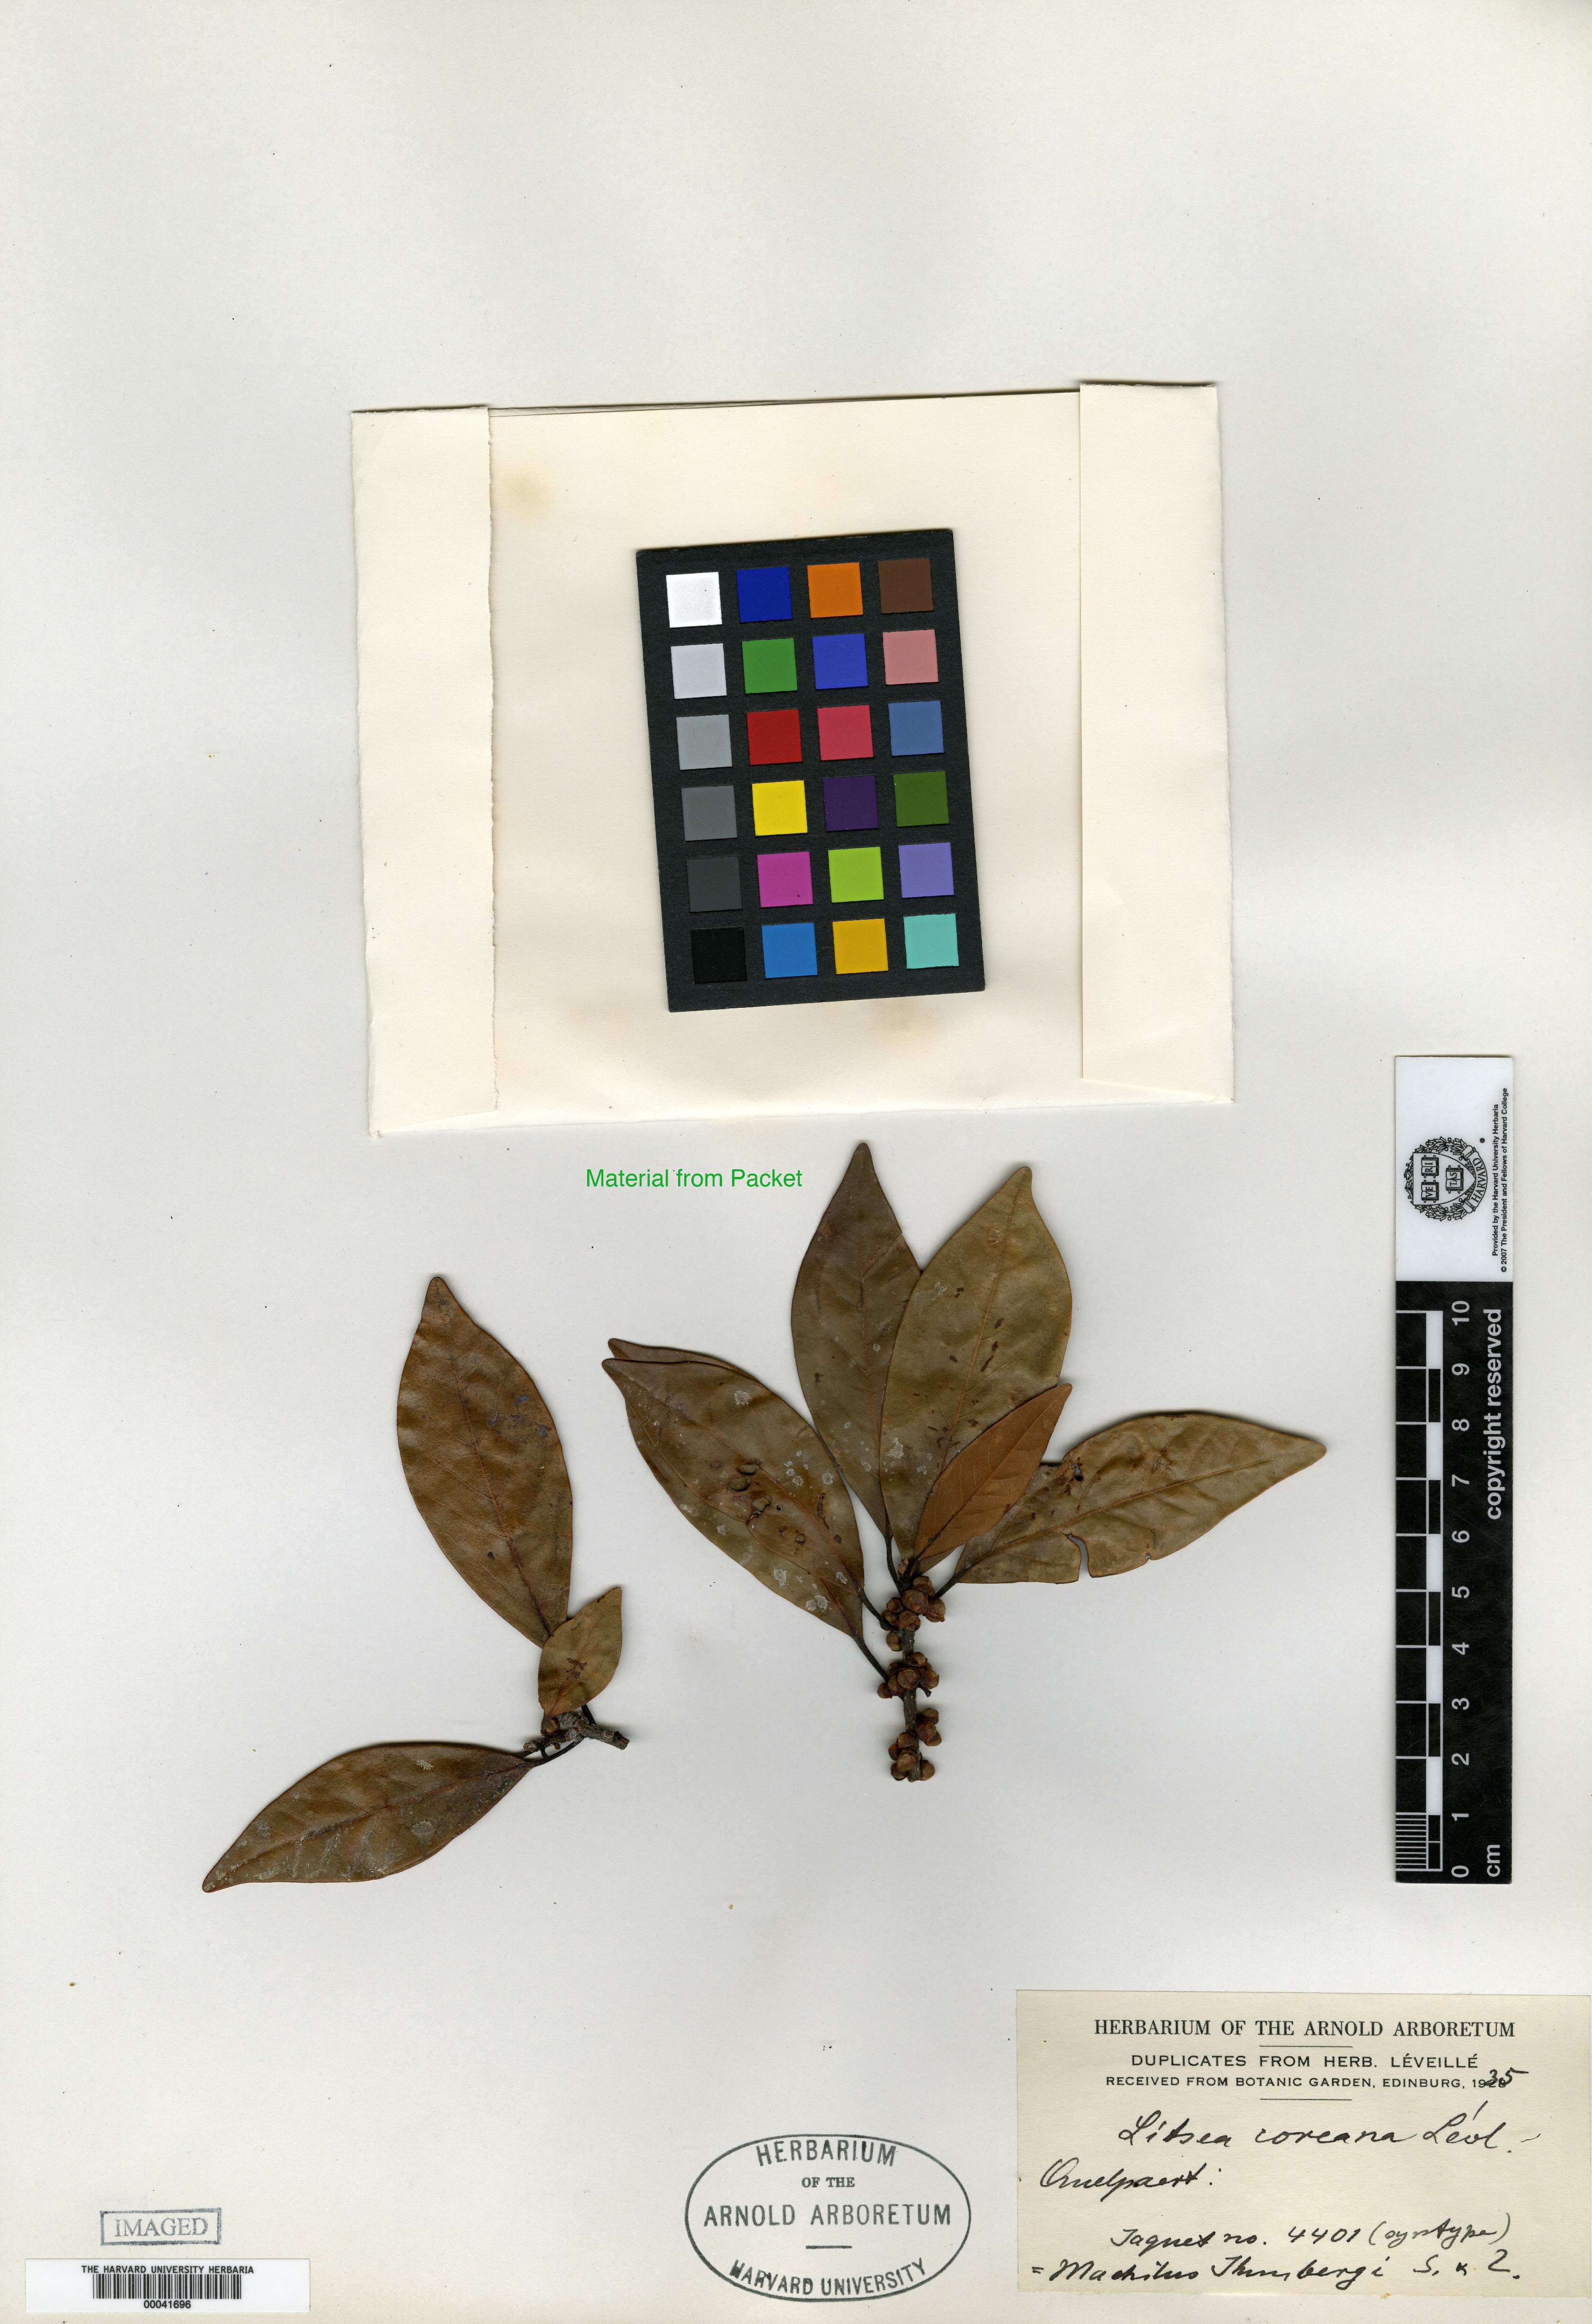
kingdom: Plantae
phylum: Tracheophyta
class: Magnoliopsida
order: Laurales
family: Lauraceae
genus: Litsea
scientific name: Litsea coreana
